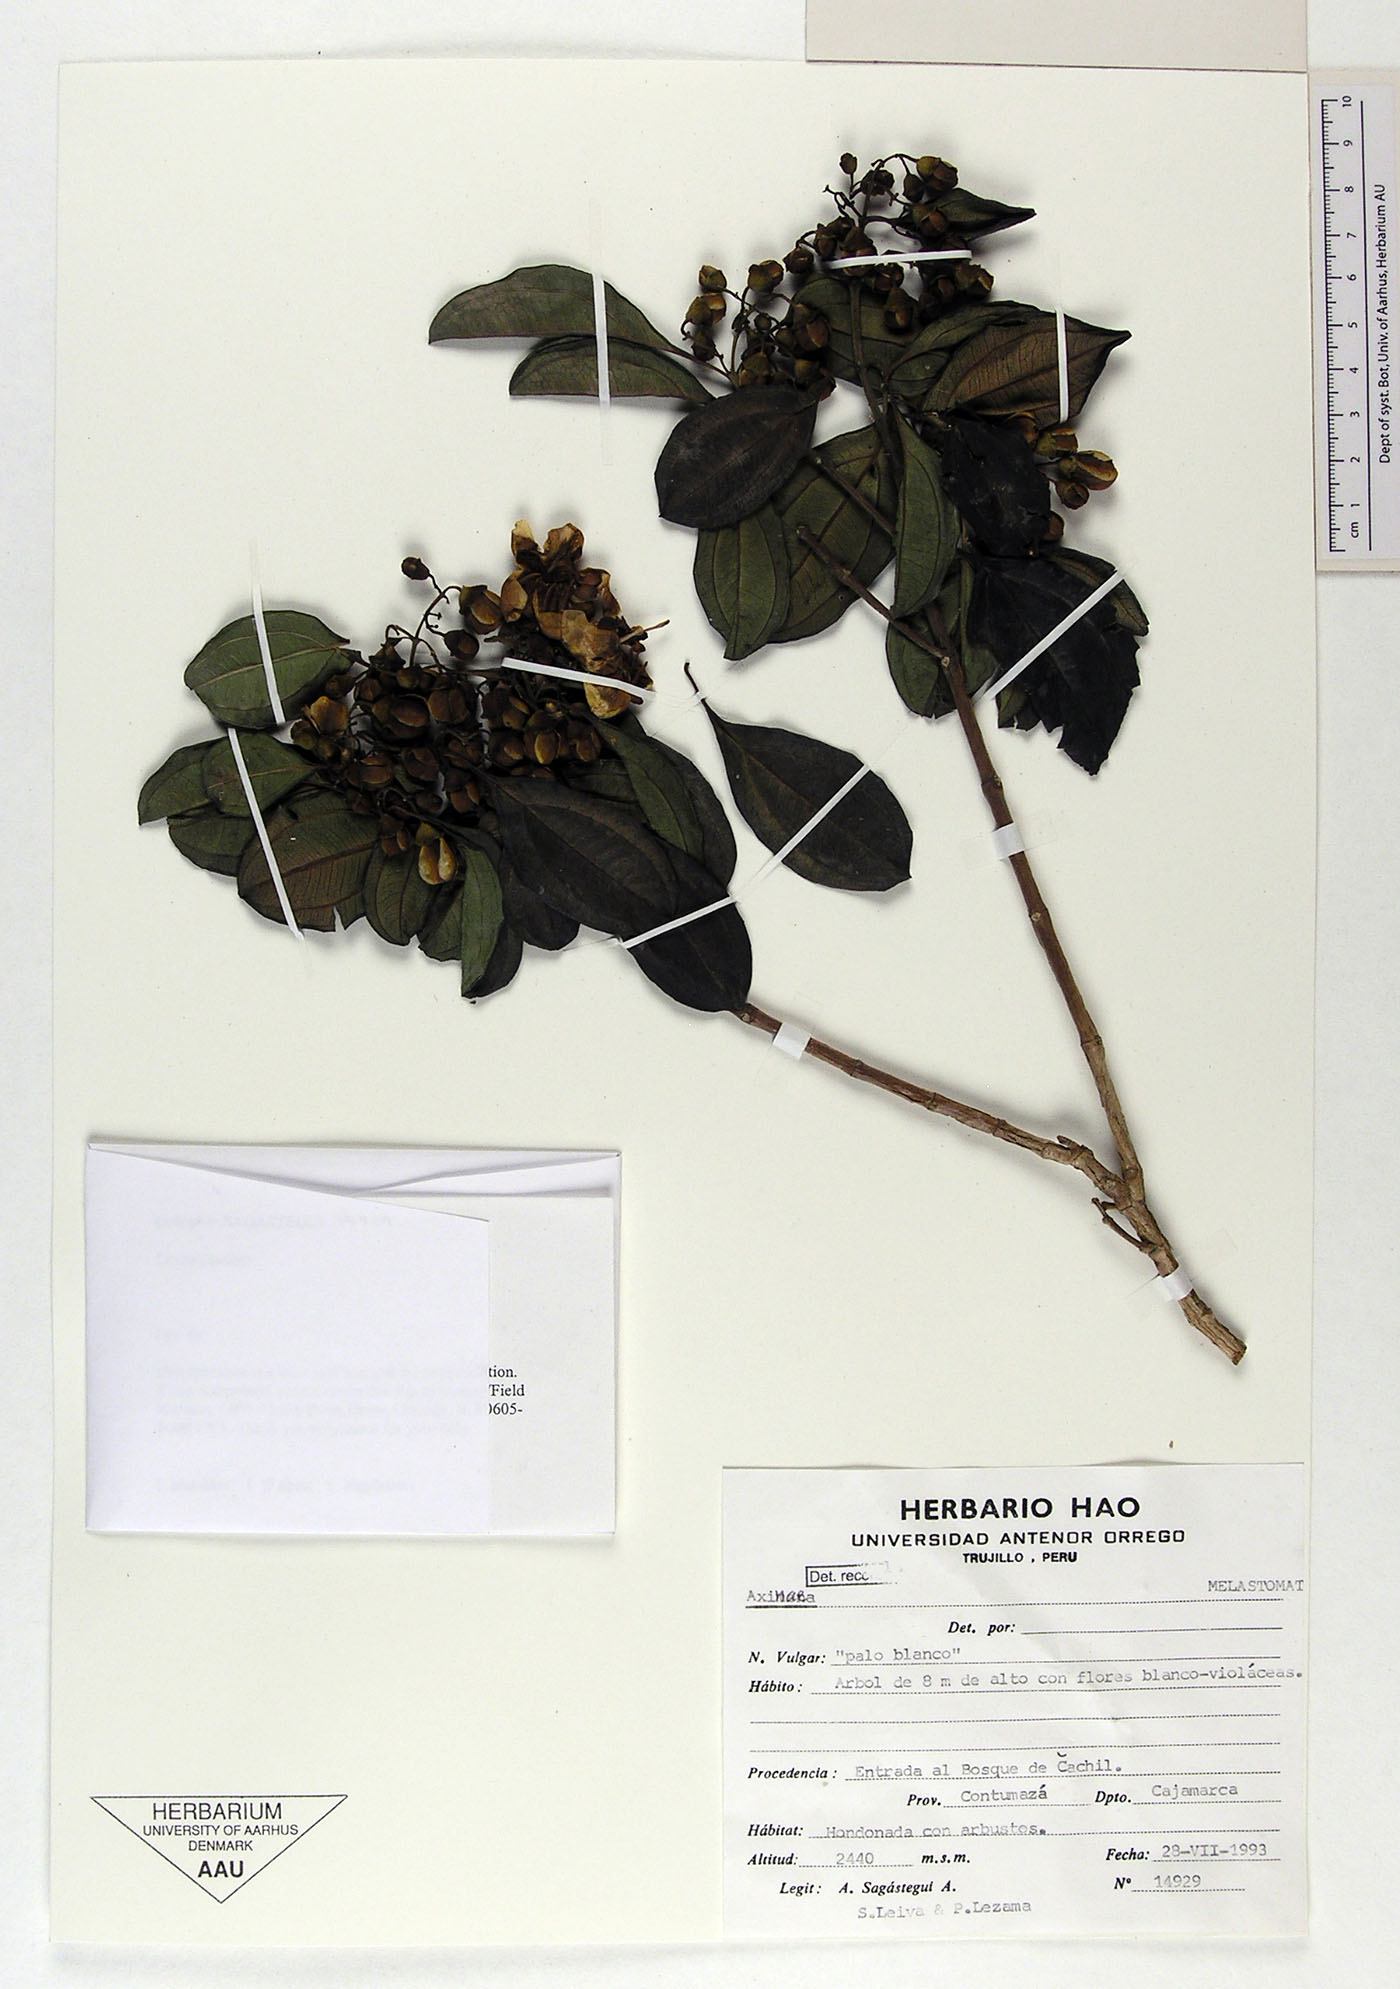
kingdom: Plantae
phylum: Tracheophyta
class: Magnoliopsida
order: Myrtales
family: Melastomataceae
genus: Axinaea
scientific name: Axinaea
